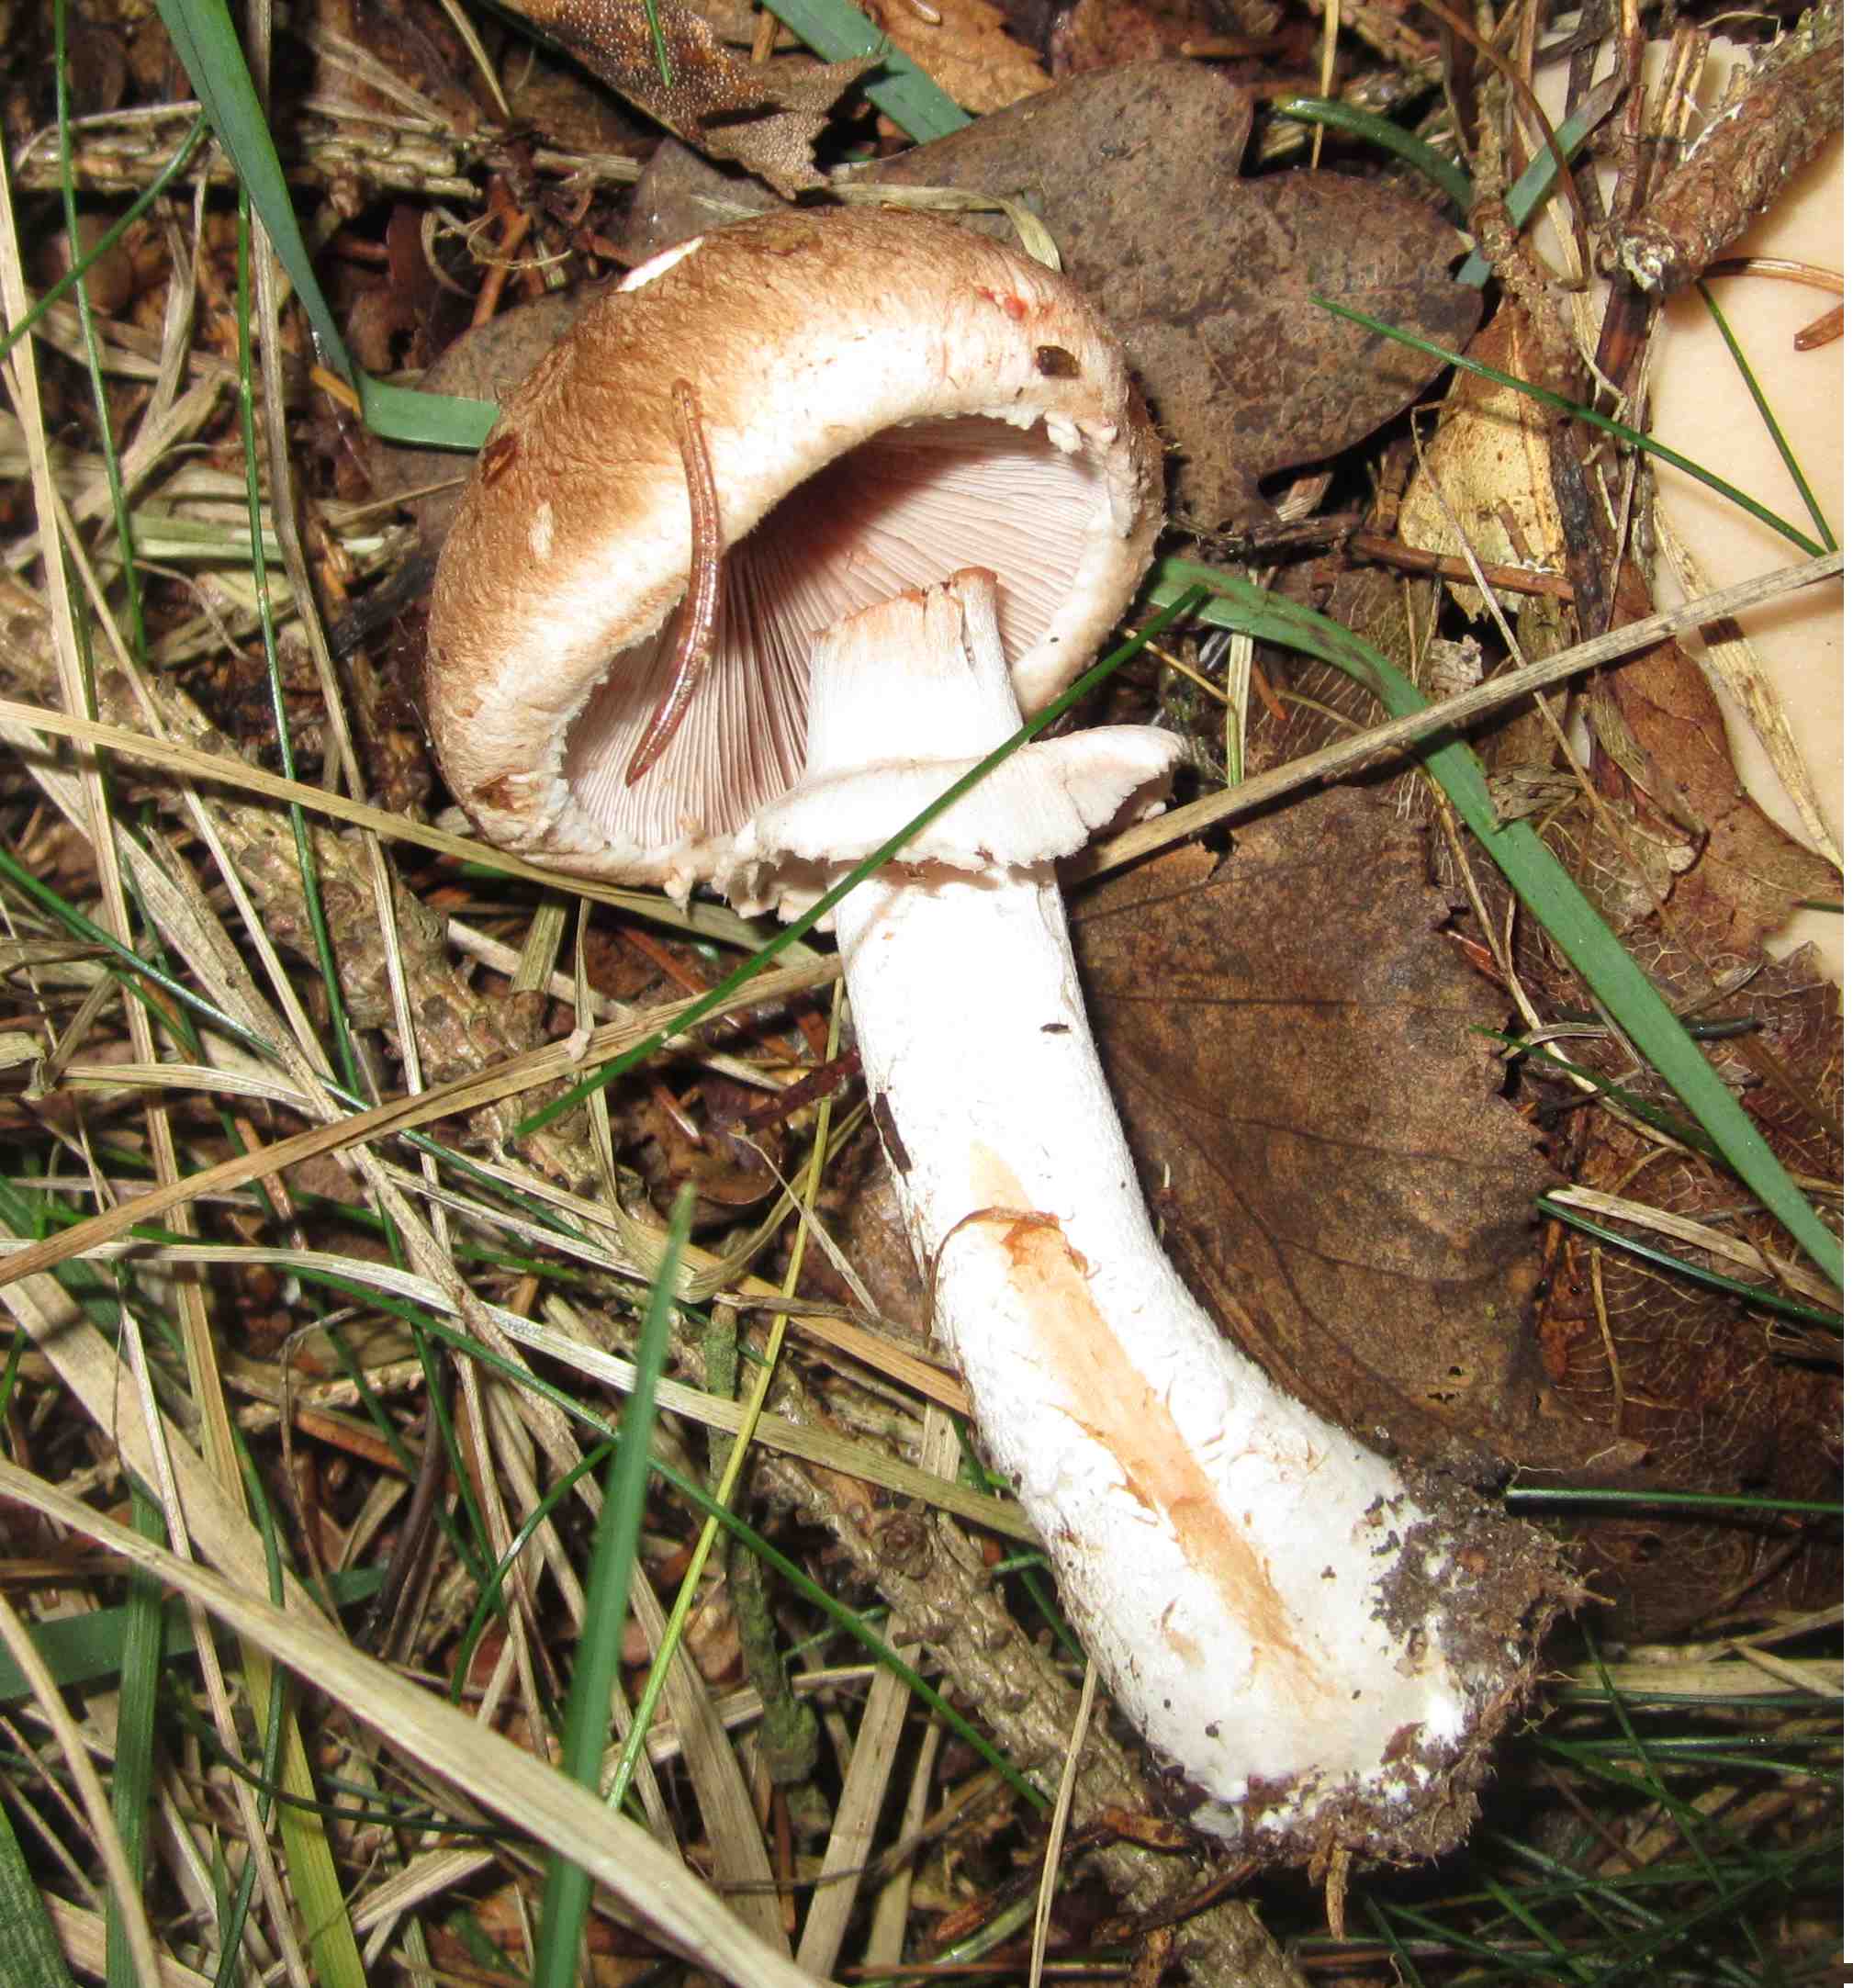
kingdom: Fungi
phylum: Basidiomycota
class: Agaricomycetes
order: Agaricales
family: Agaricaceae
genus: Agaricus
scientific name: Agaricus sylvaticus
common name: lille blod-champignon
